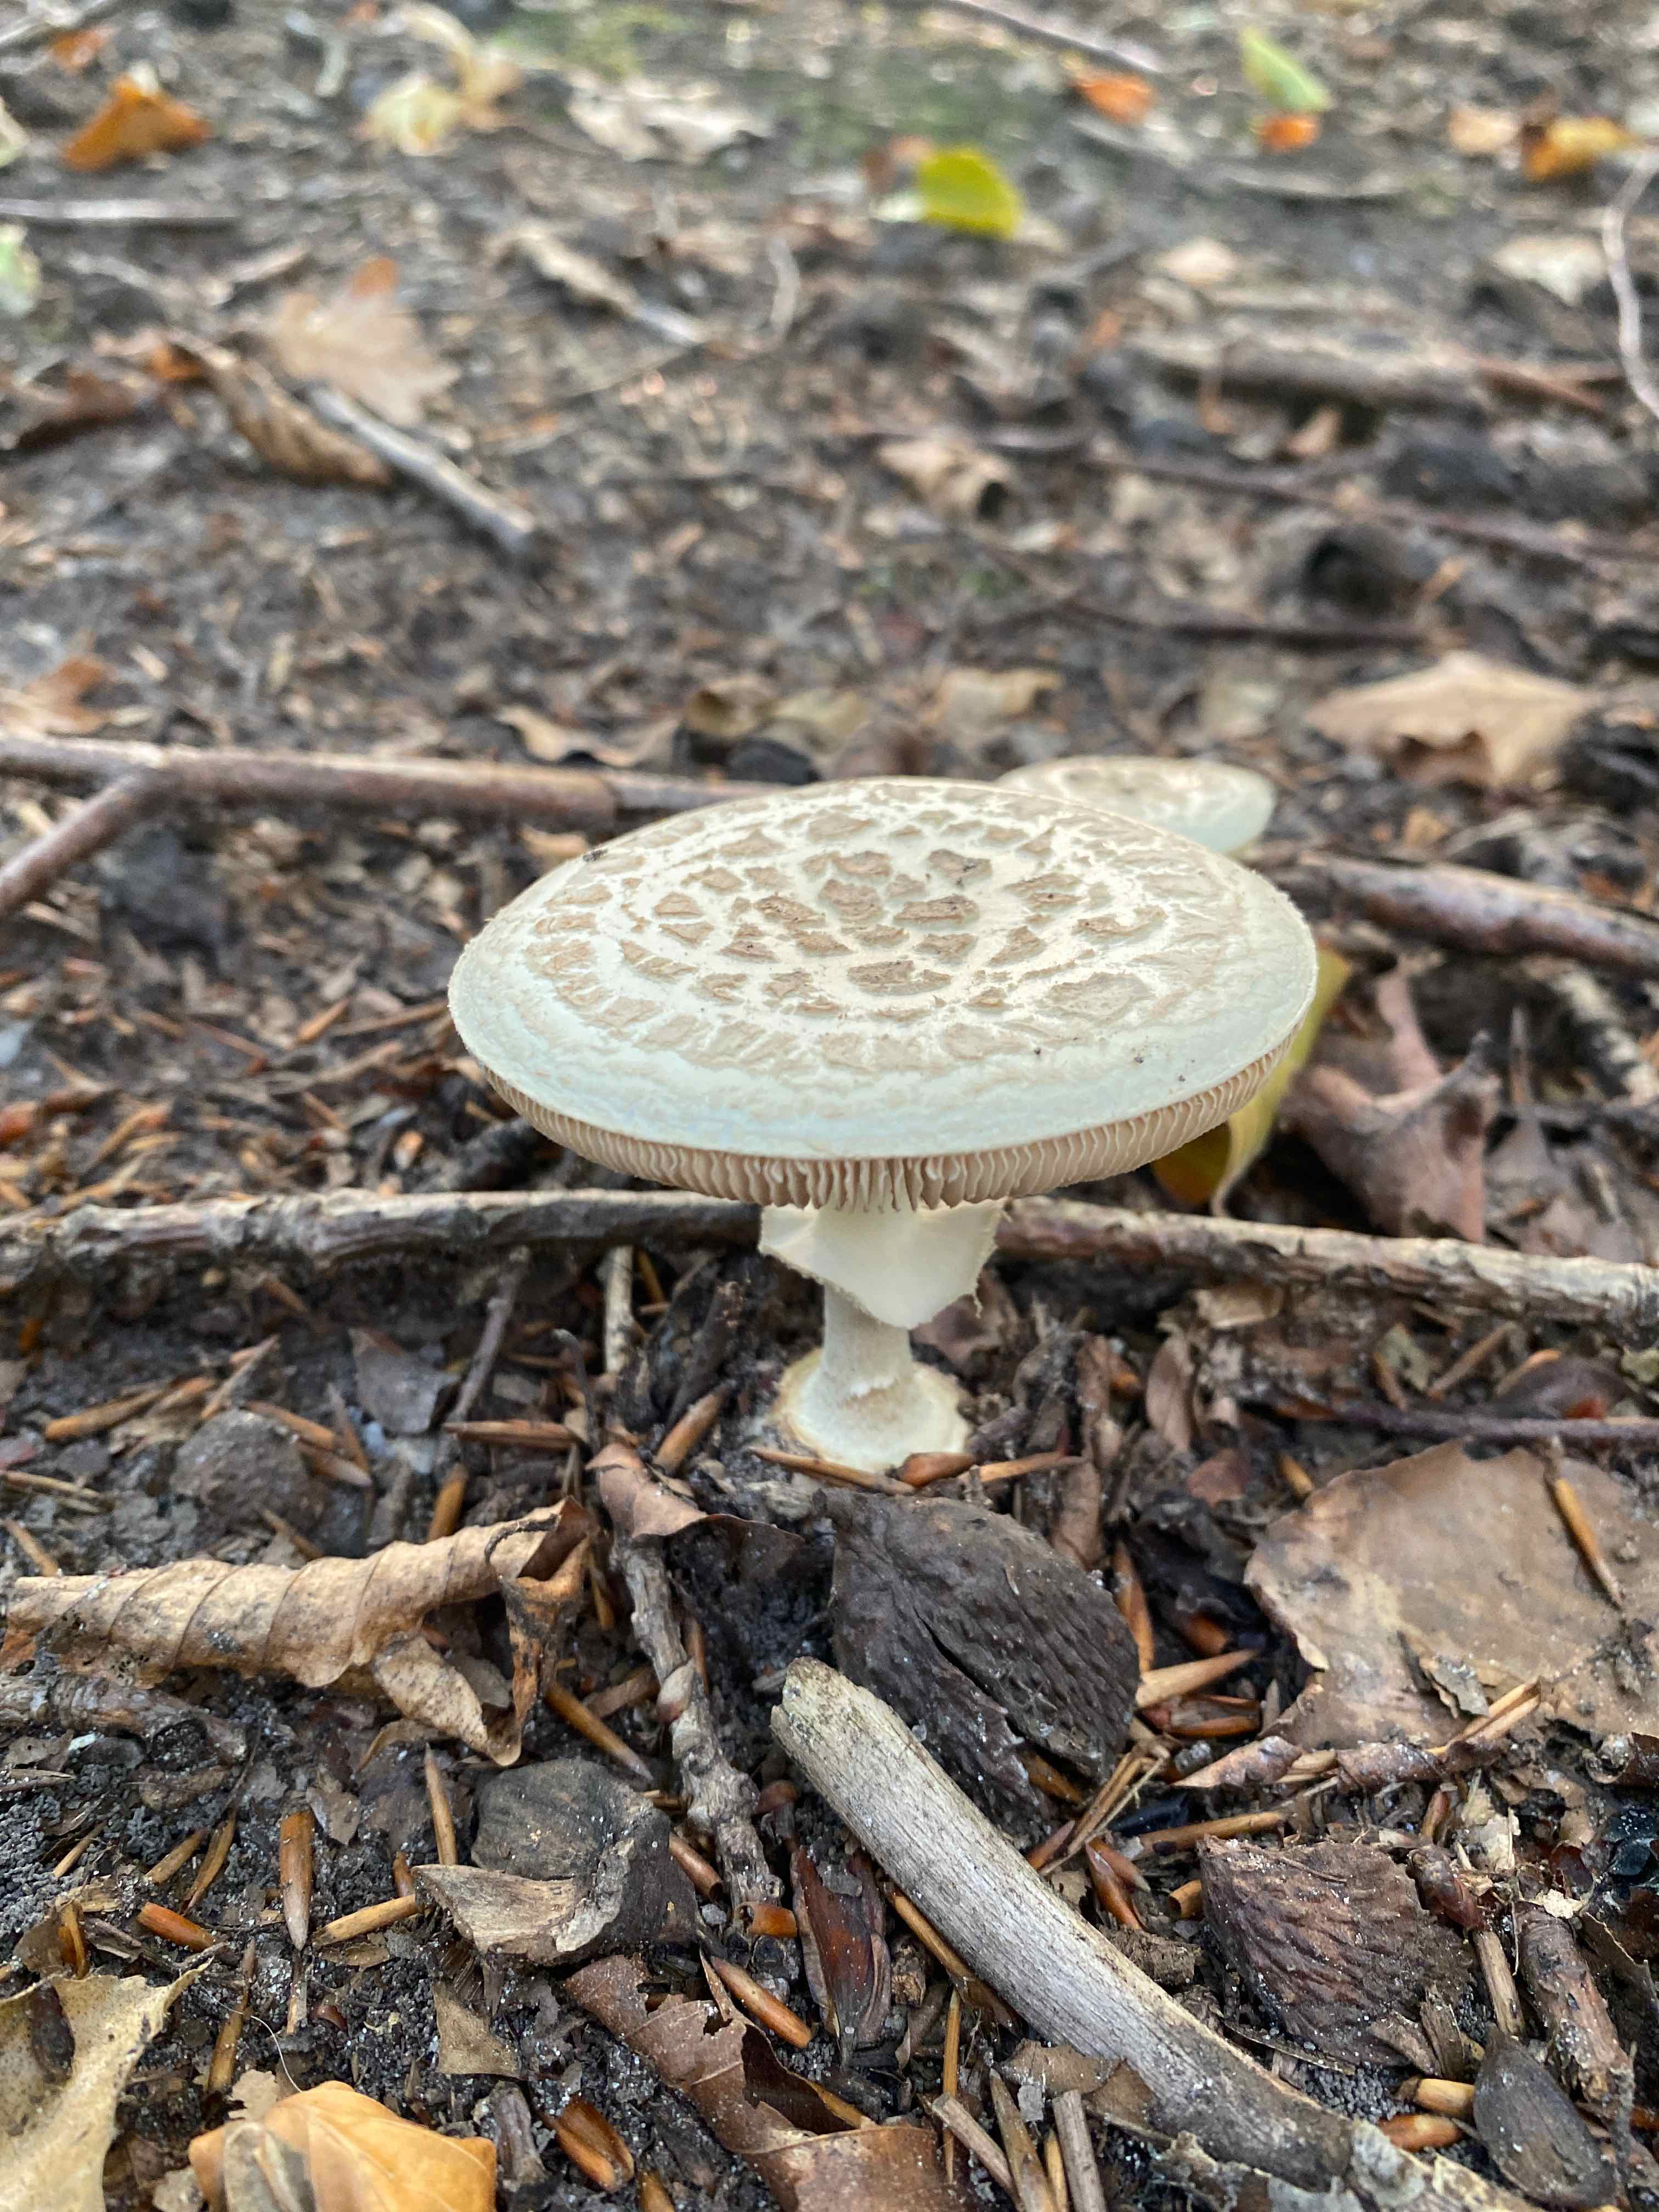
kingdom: Fungi
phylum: Basidiomycota
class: Agaricomycetes
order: Agaricales
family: Amanitaceae
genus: Amanita
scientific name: Amanita citrina
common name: False death-cap
